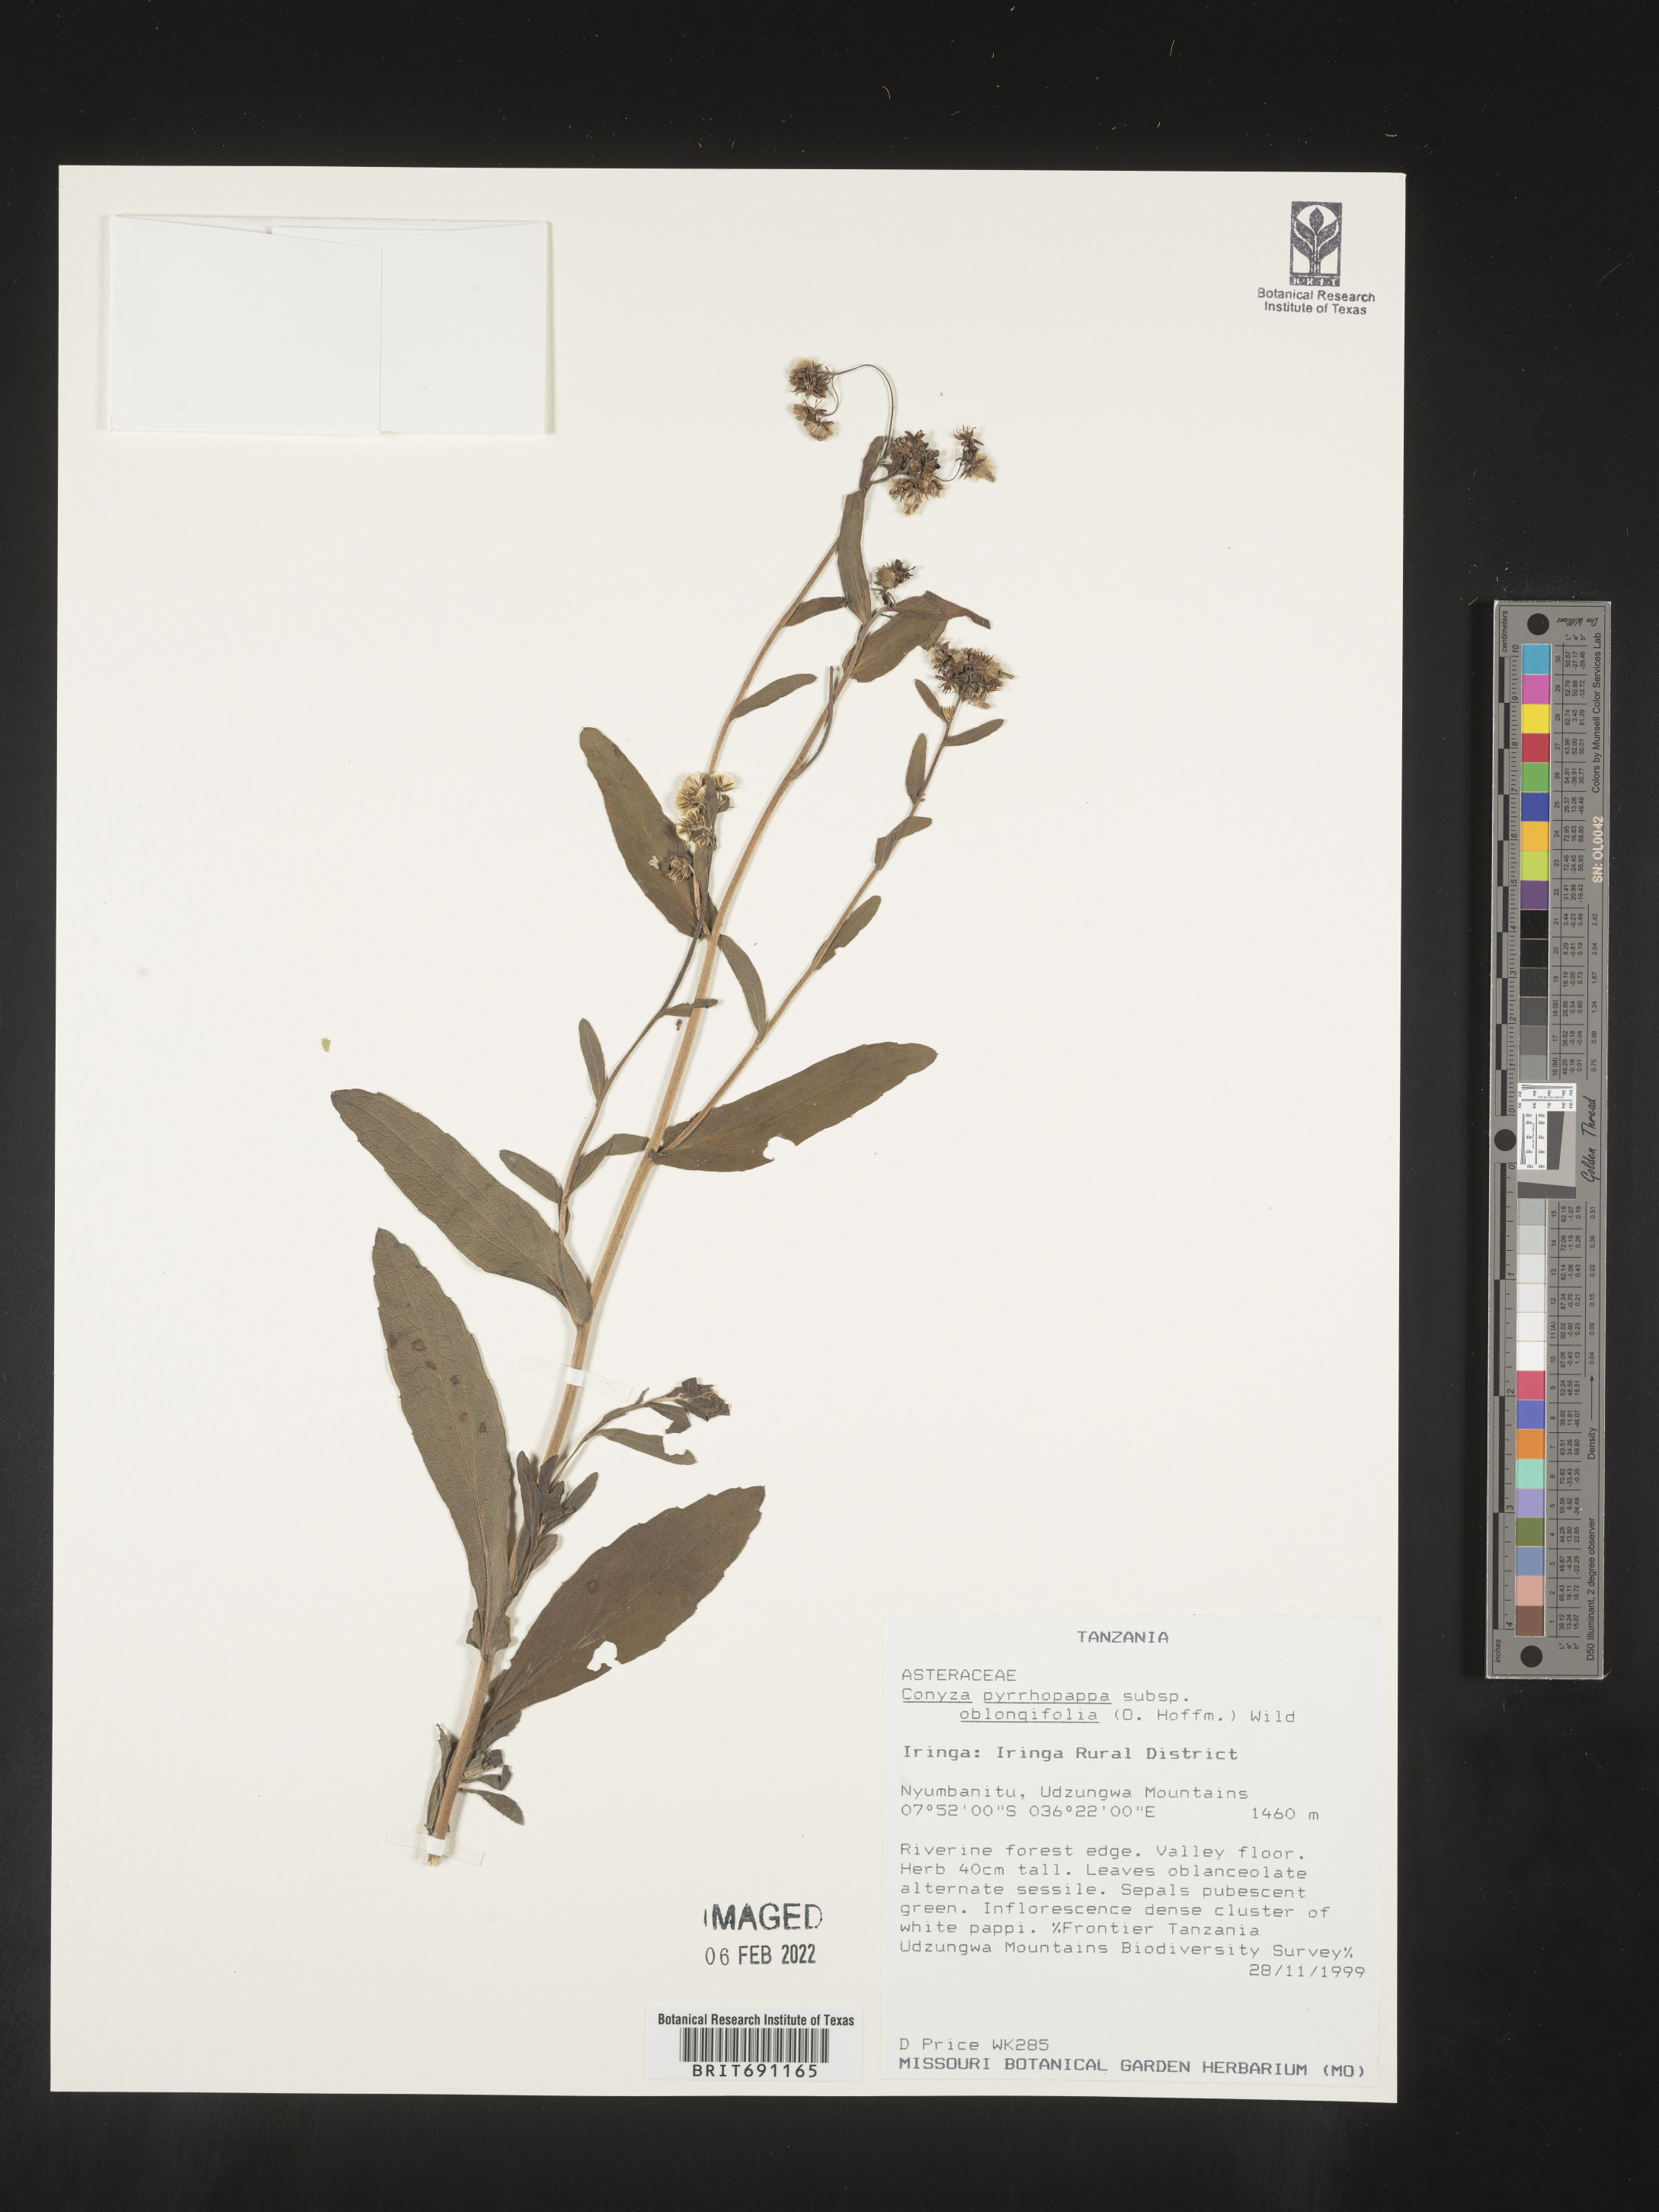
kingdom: Plantae
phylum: Tracheophyta
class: Magnoliopsida
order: Asterales
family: Asteraceae
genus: Conyza
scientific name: Conyza
